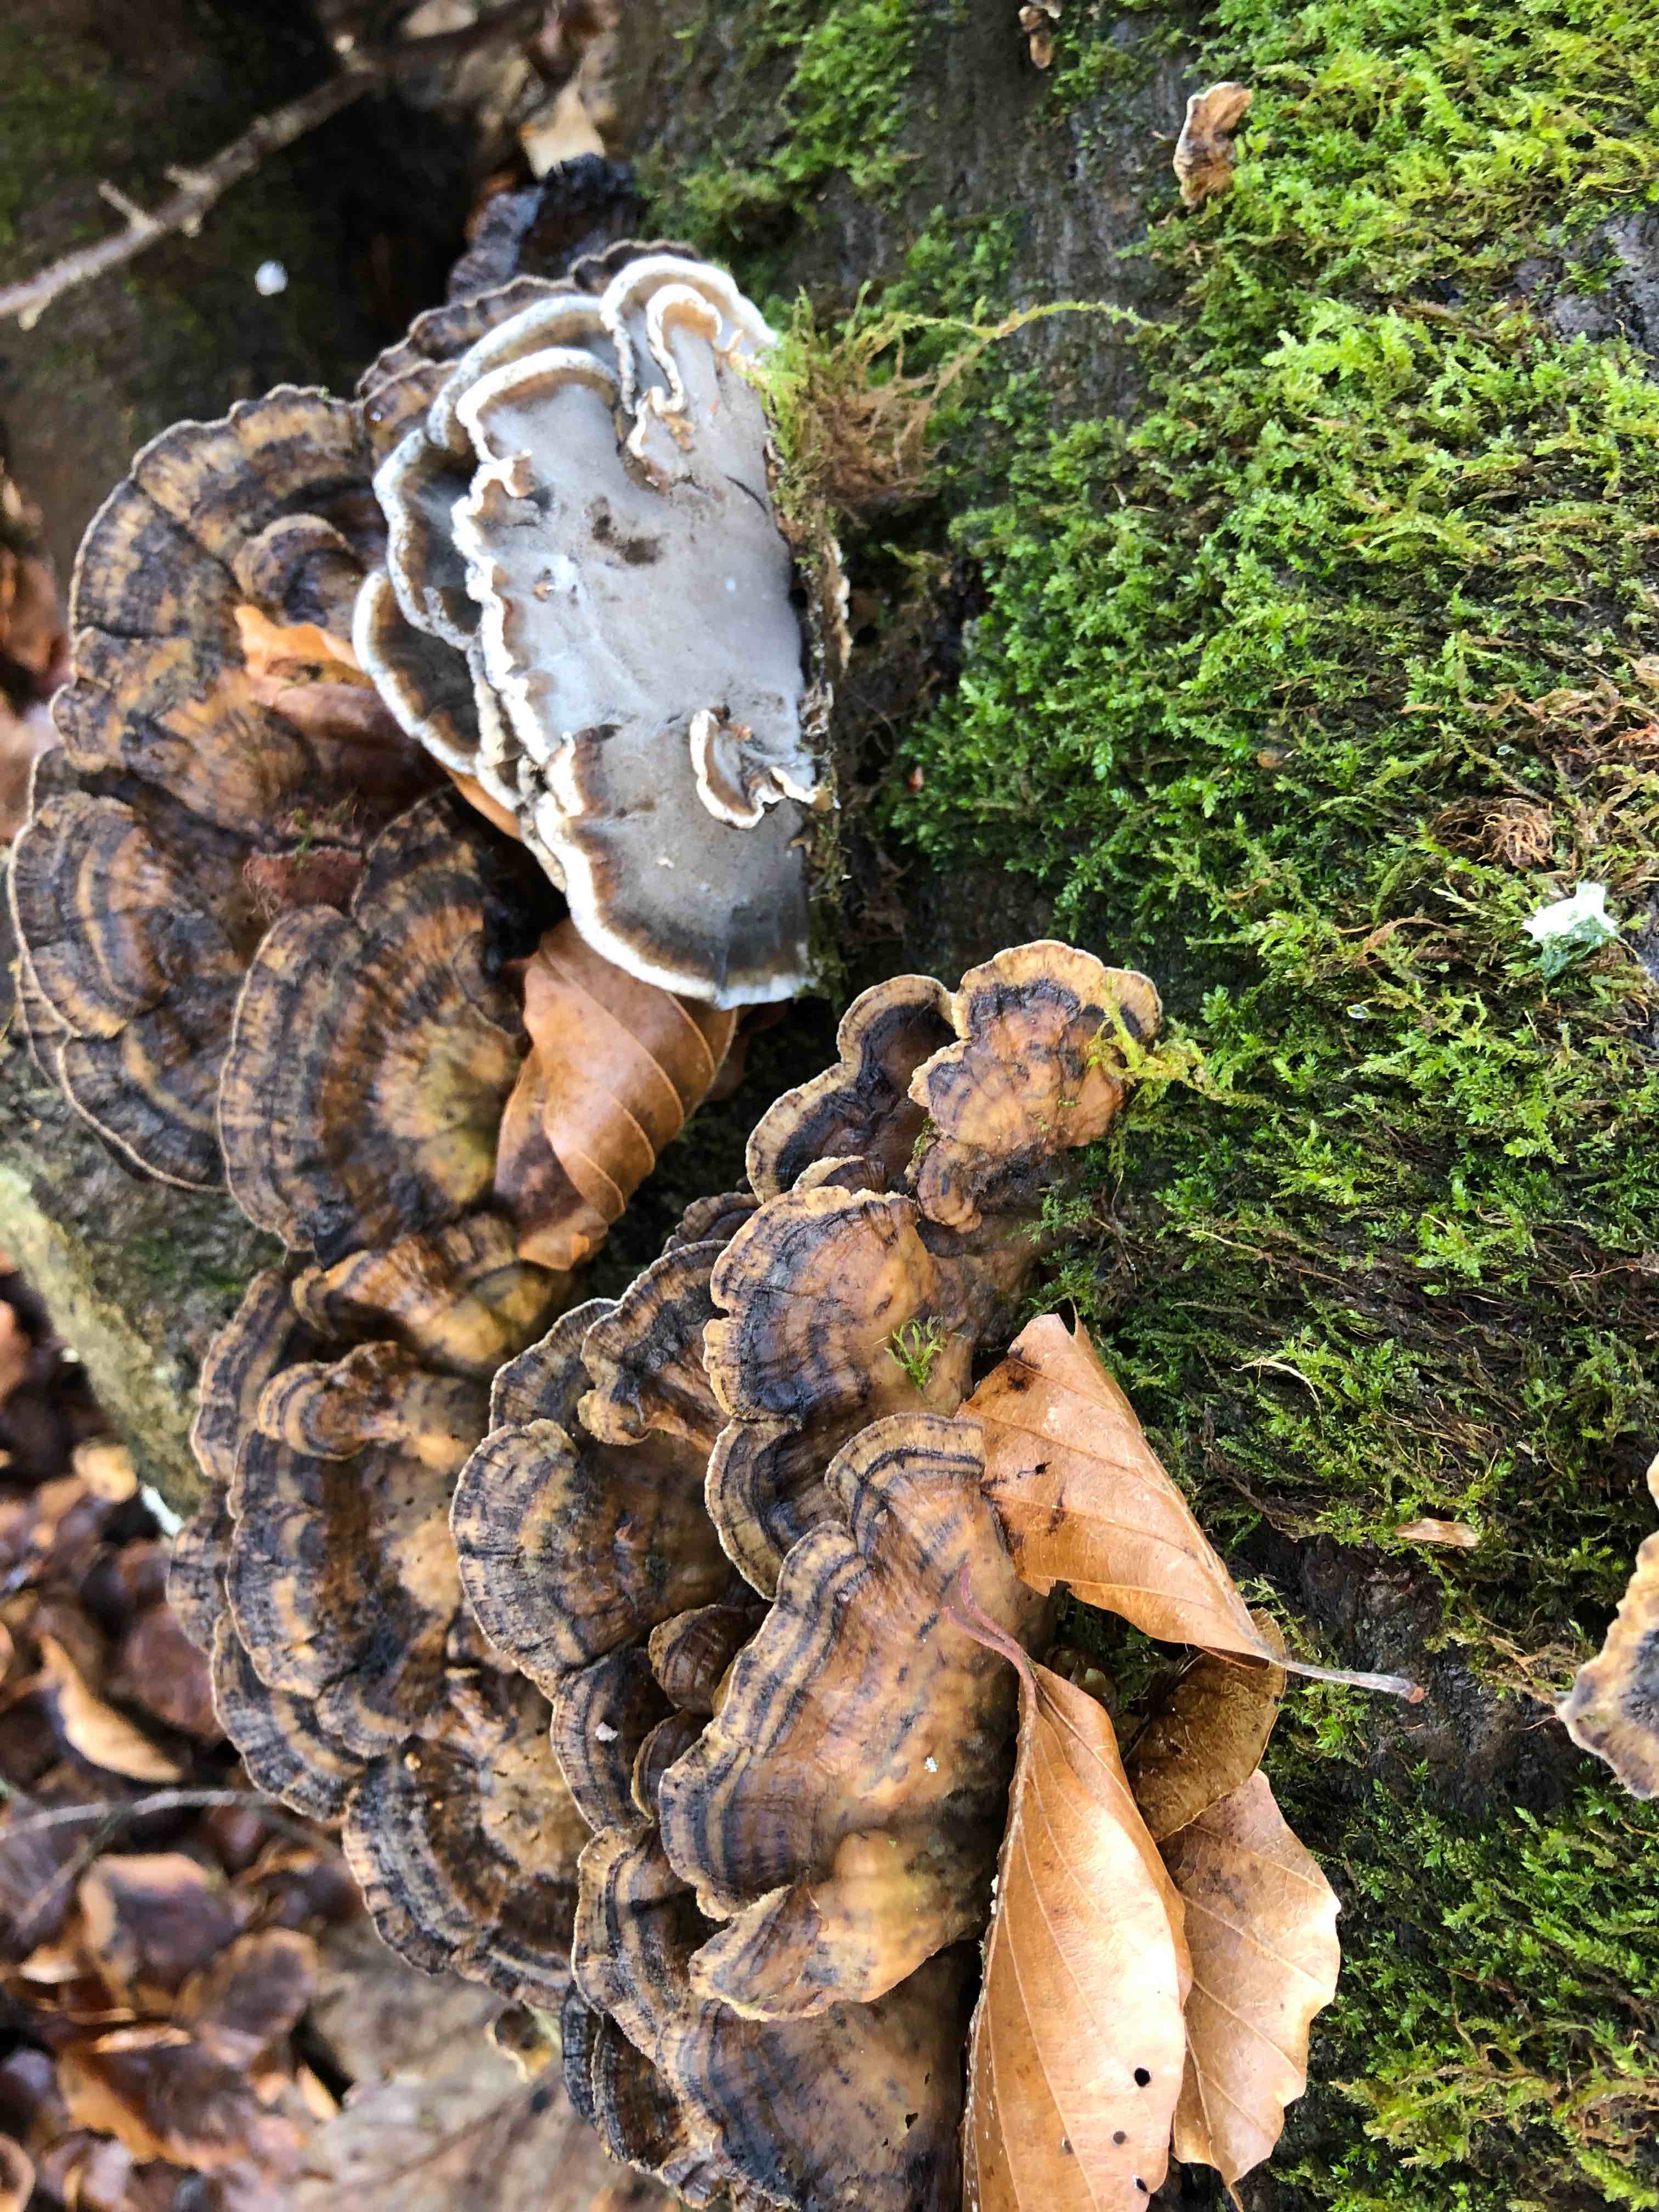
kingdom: Fungi
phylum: Basidiomycota
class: Agaricomycetes
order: Polyporales
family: Phanerochaetaceae
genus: Bjerkandera
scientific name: Bjerkandera adusta
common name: sveden sodporesvamp
